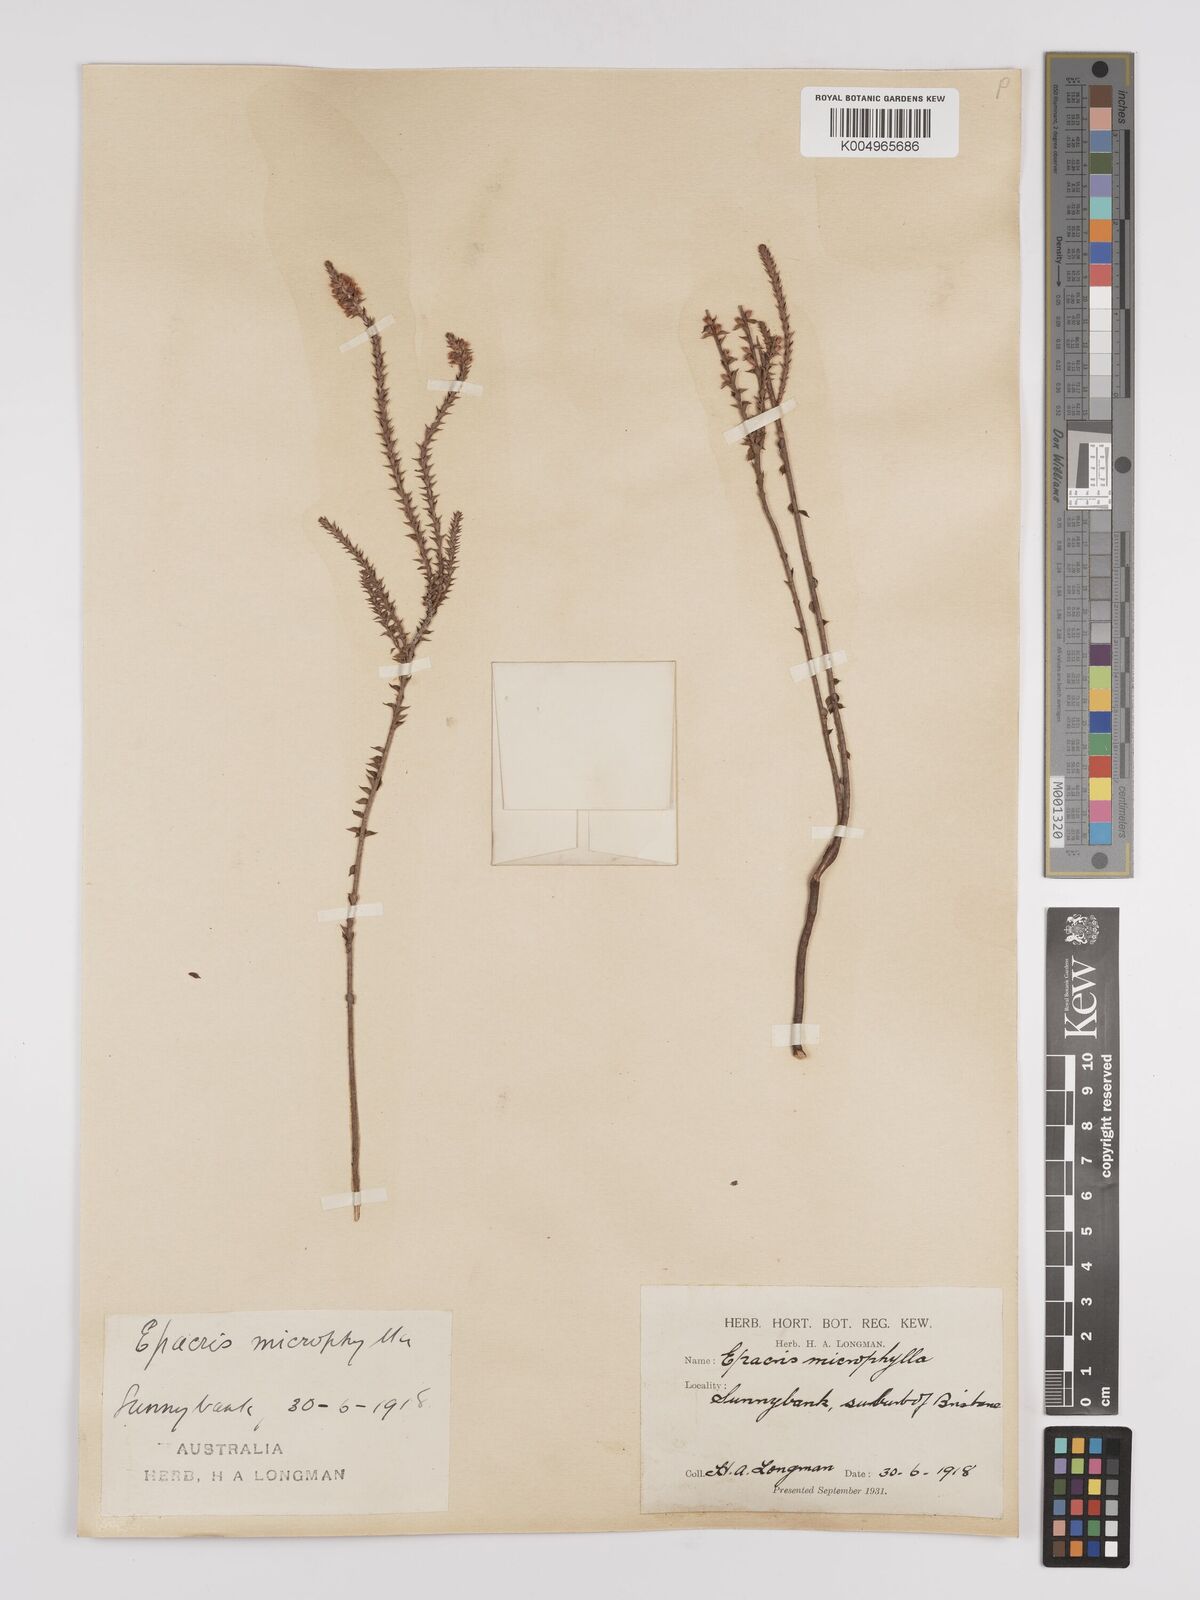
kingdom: Plantae
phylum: Tracheophyta
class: Magnoliopsida
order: Ericales
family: Ericaceae
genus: Epacris
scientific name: Epacris
